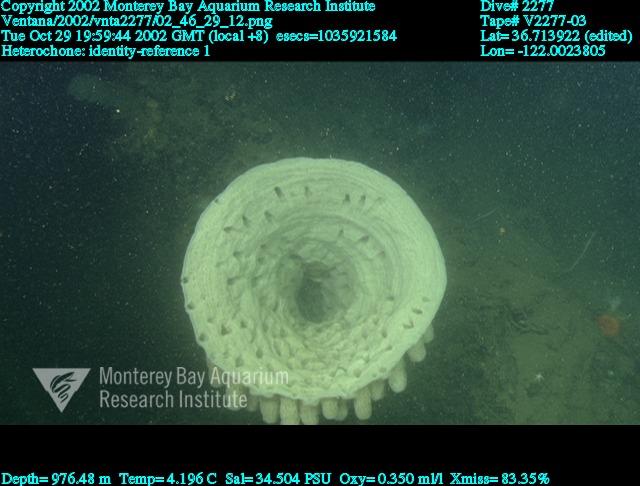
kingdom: Animalia
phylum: Porifera
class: Hexactinellida
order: Sceptrulophora
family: Aphrocallistidae
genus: Heterochone
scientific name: Heterochone
